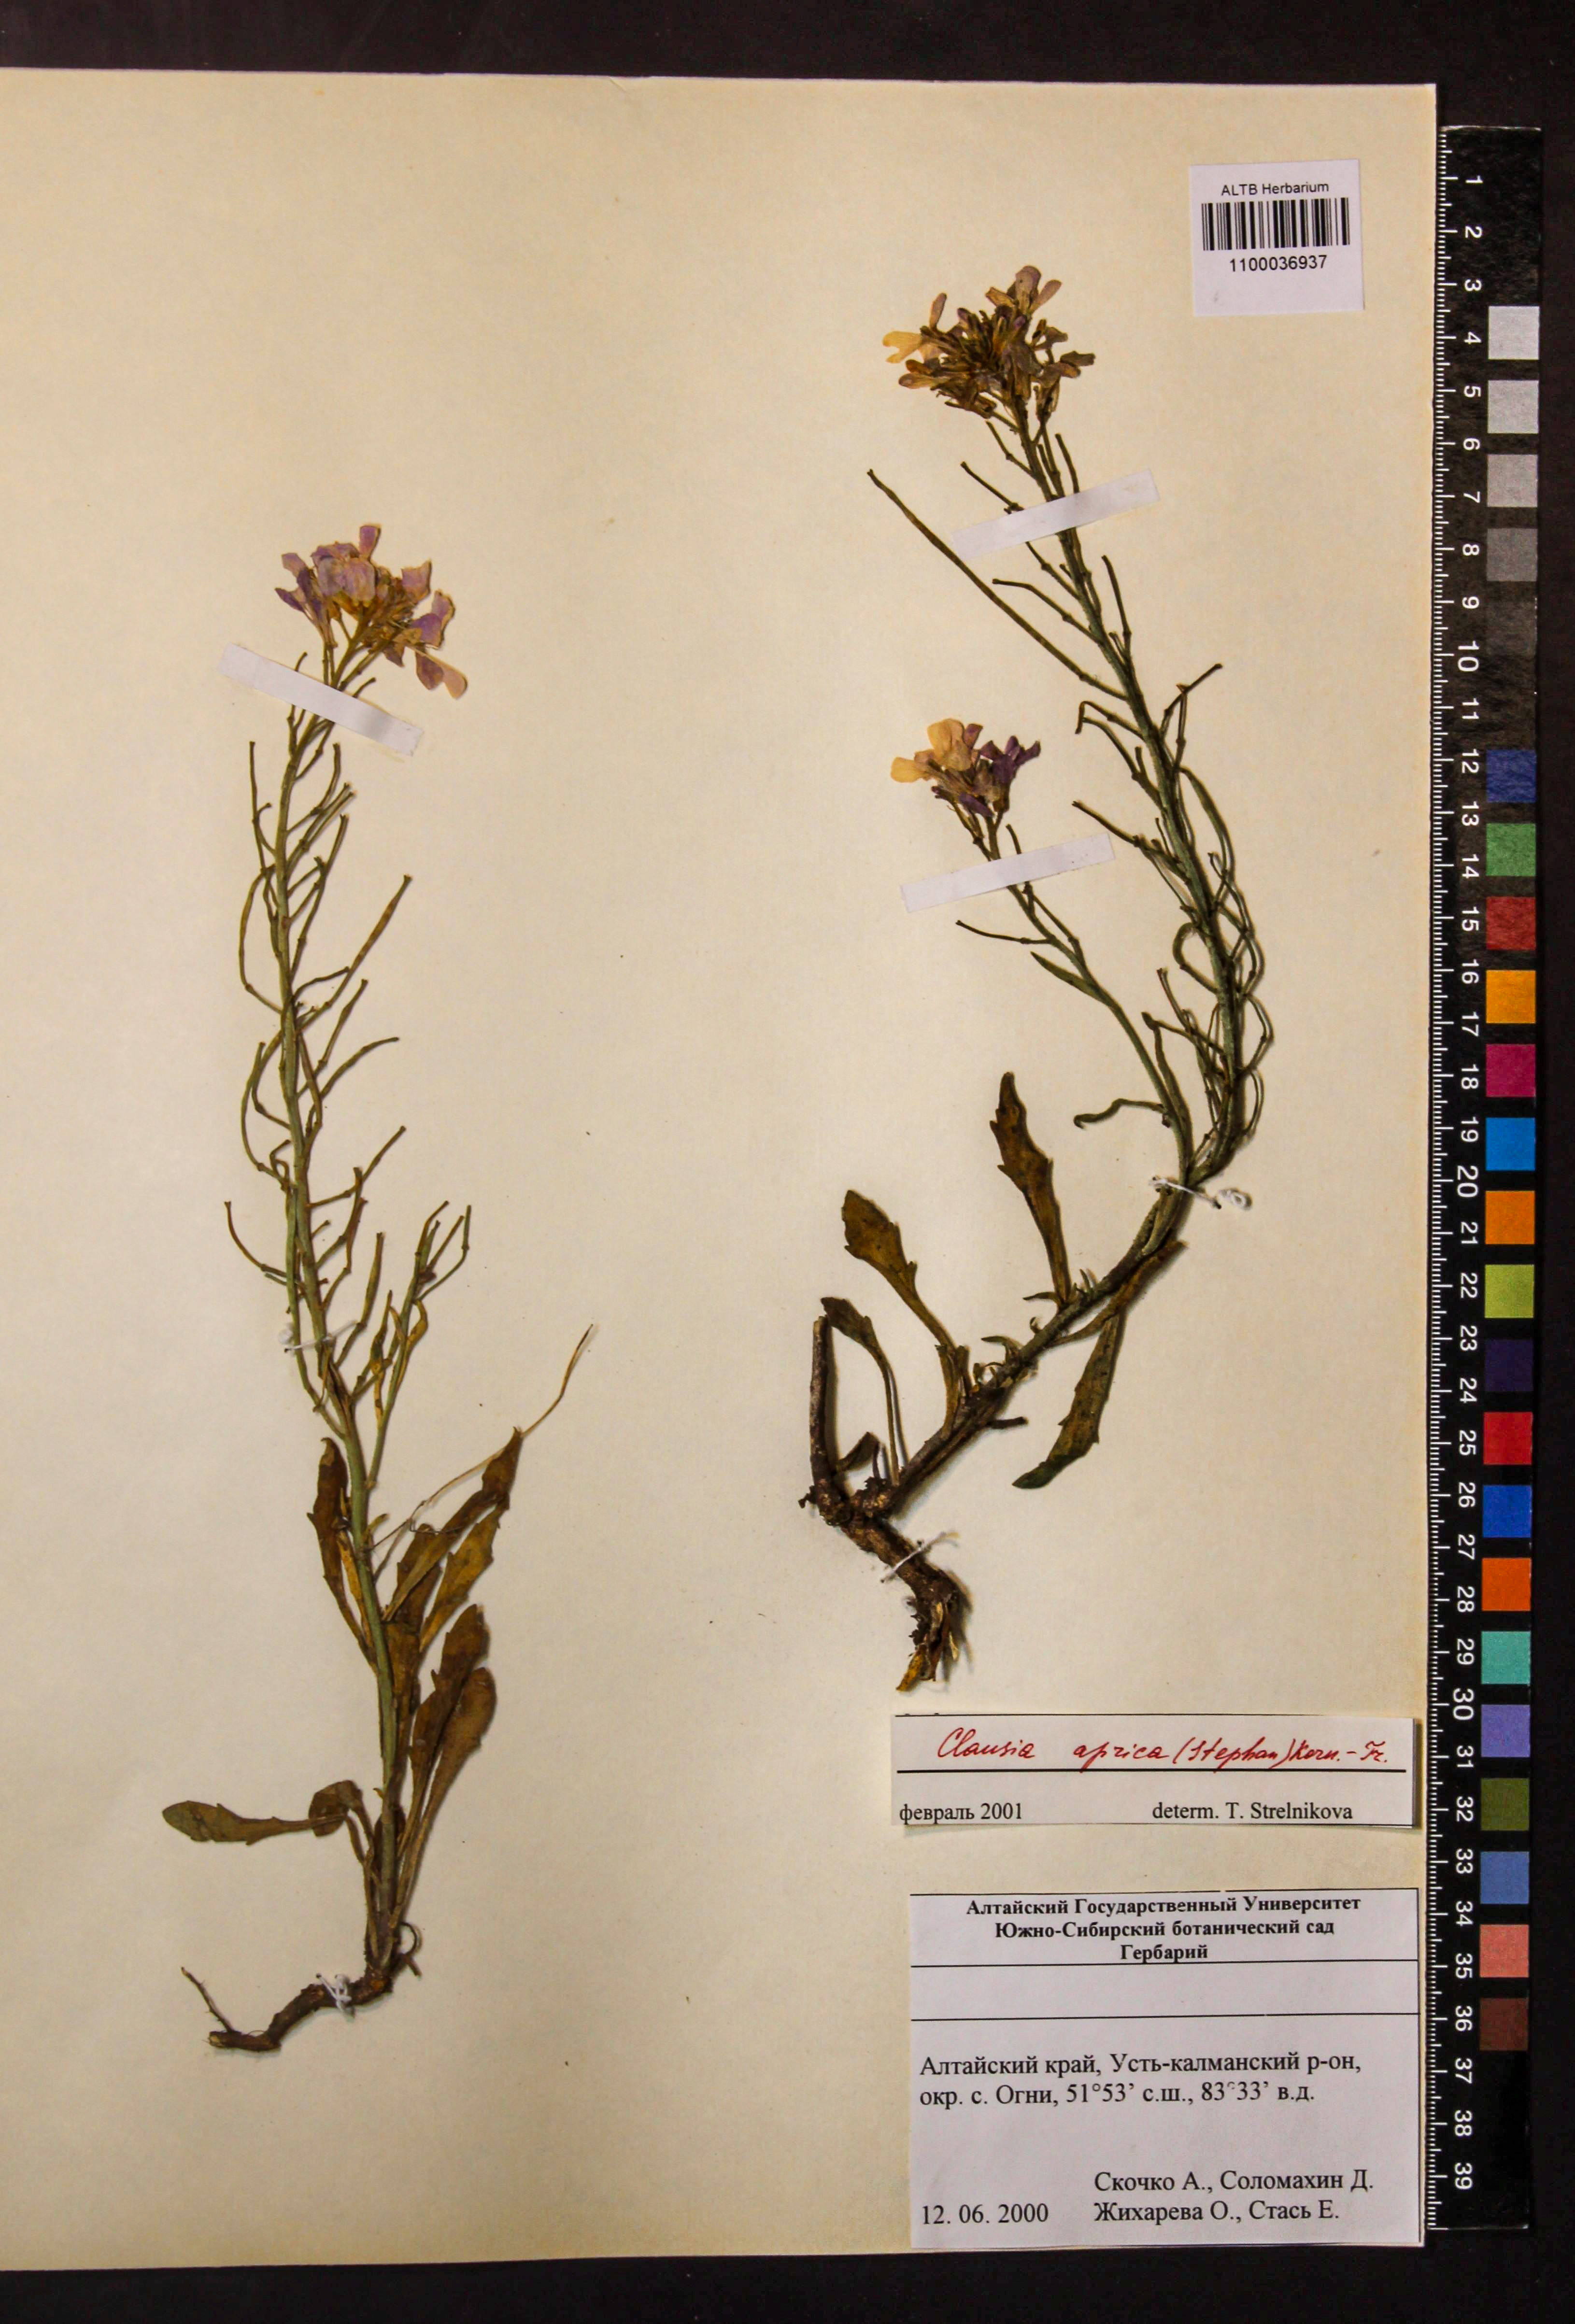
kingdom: Plantae
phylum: Tracheophyta
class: Magnoliopsida
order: Brassicales
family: Brassicaceae
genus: Clausia
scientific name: Clausia aprica
